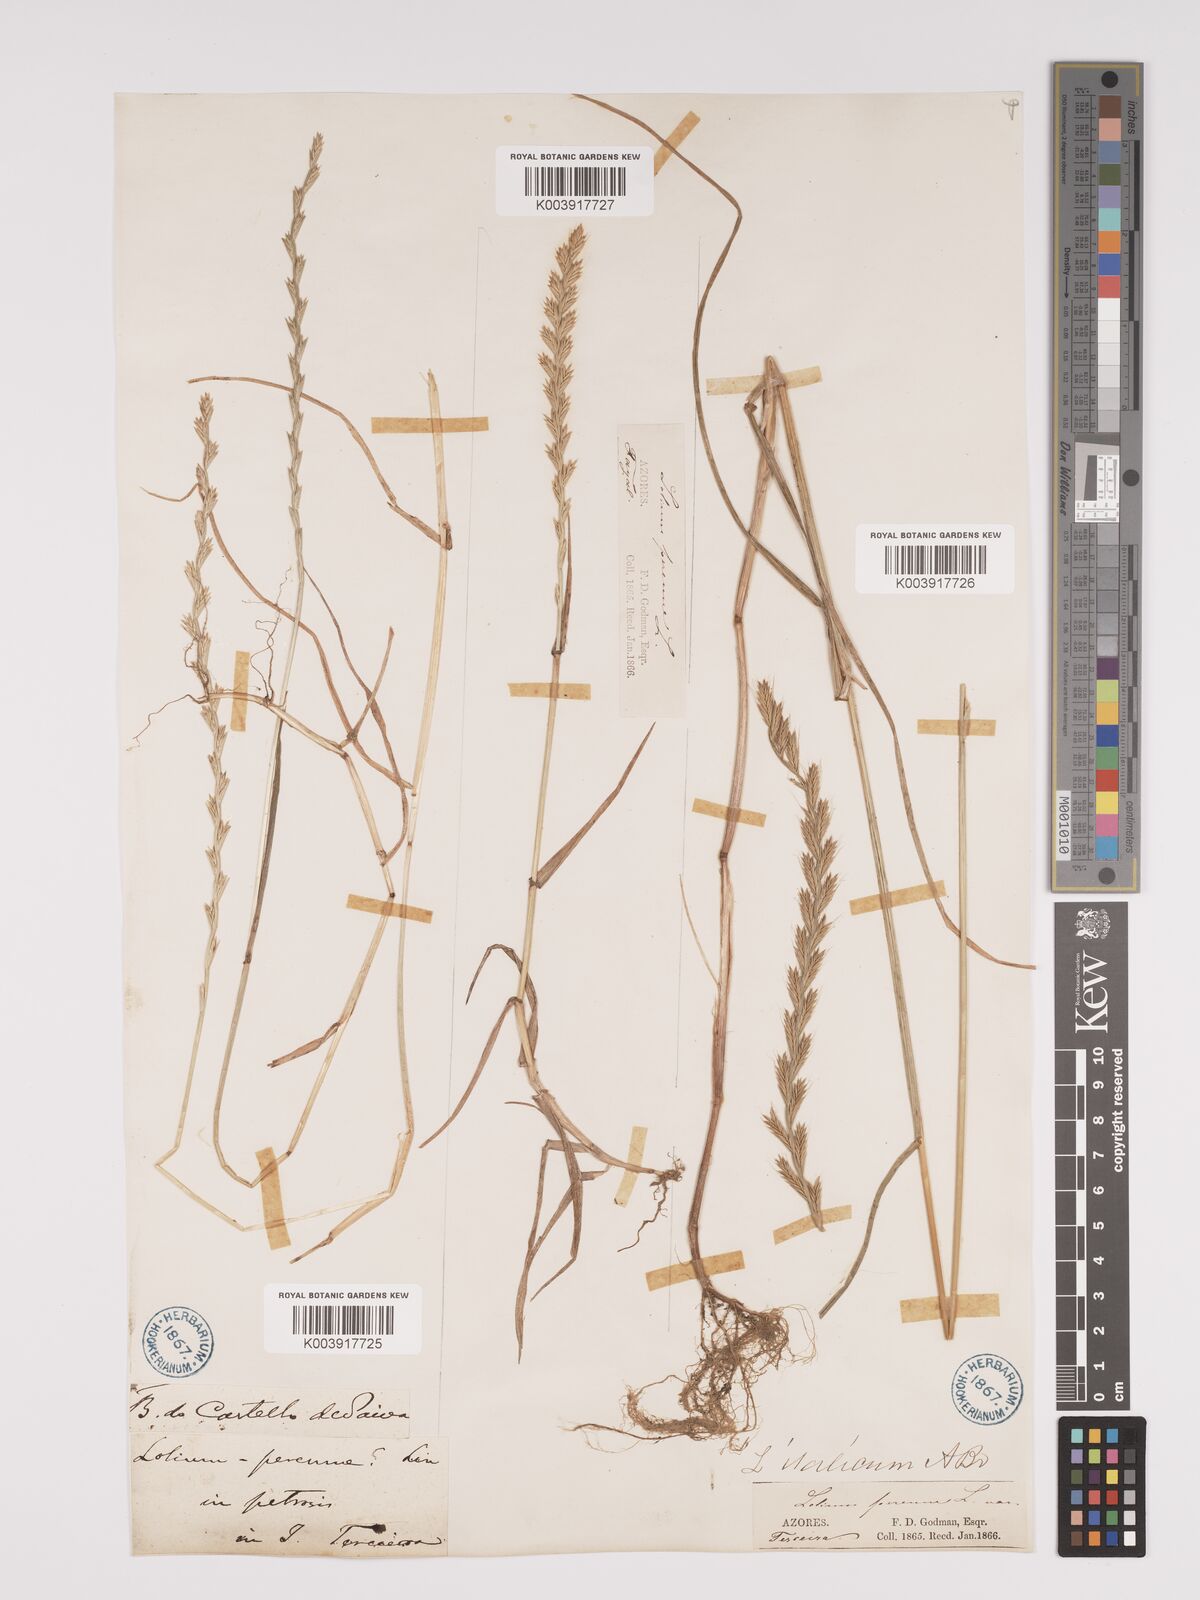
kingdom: Plantae
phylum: Tracheophyta
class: Liliopsida
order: Poales
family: Poaceae
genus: Lolium
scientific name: Lolium perenne
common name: Perennial ryegrass
